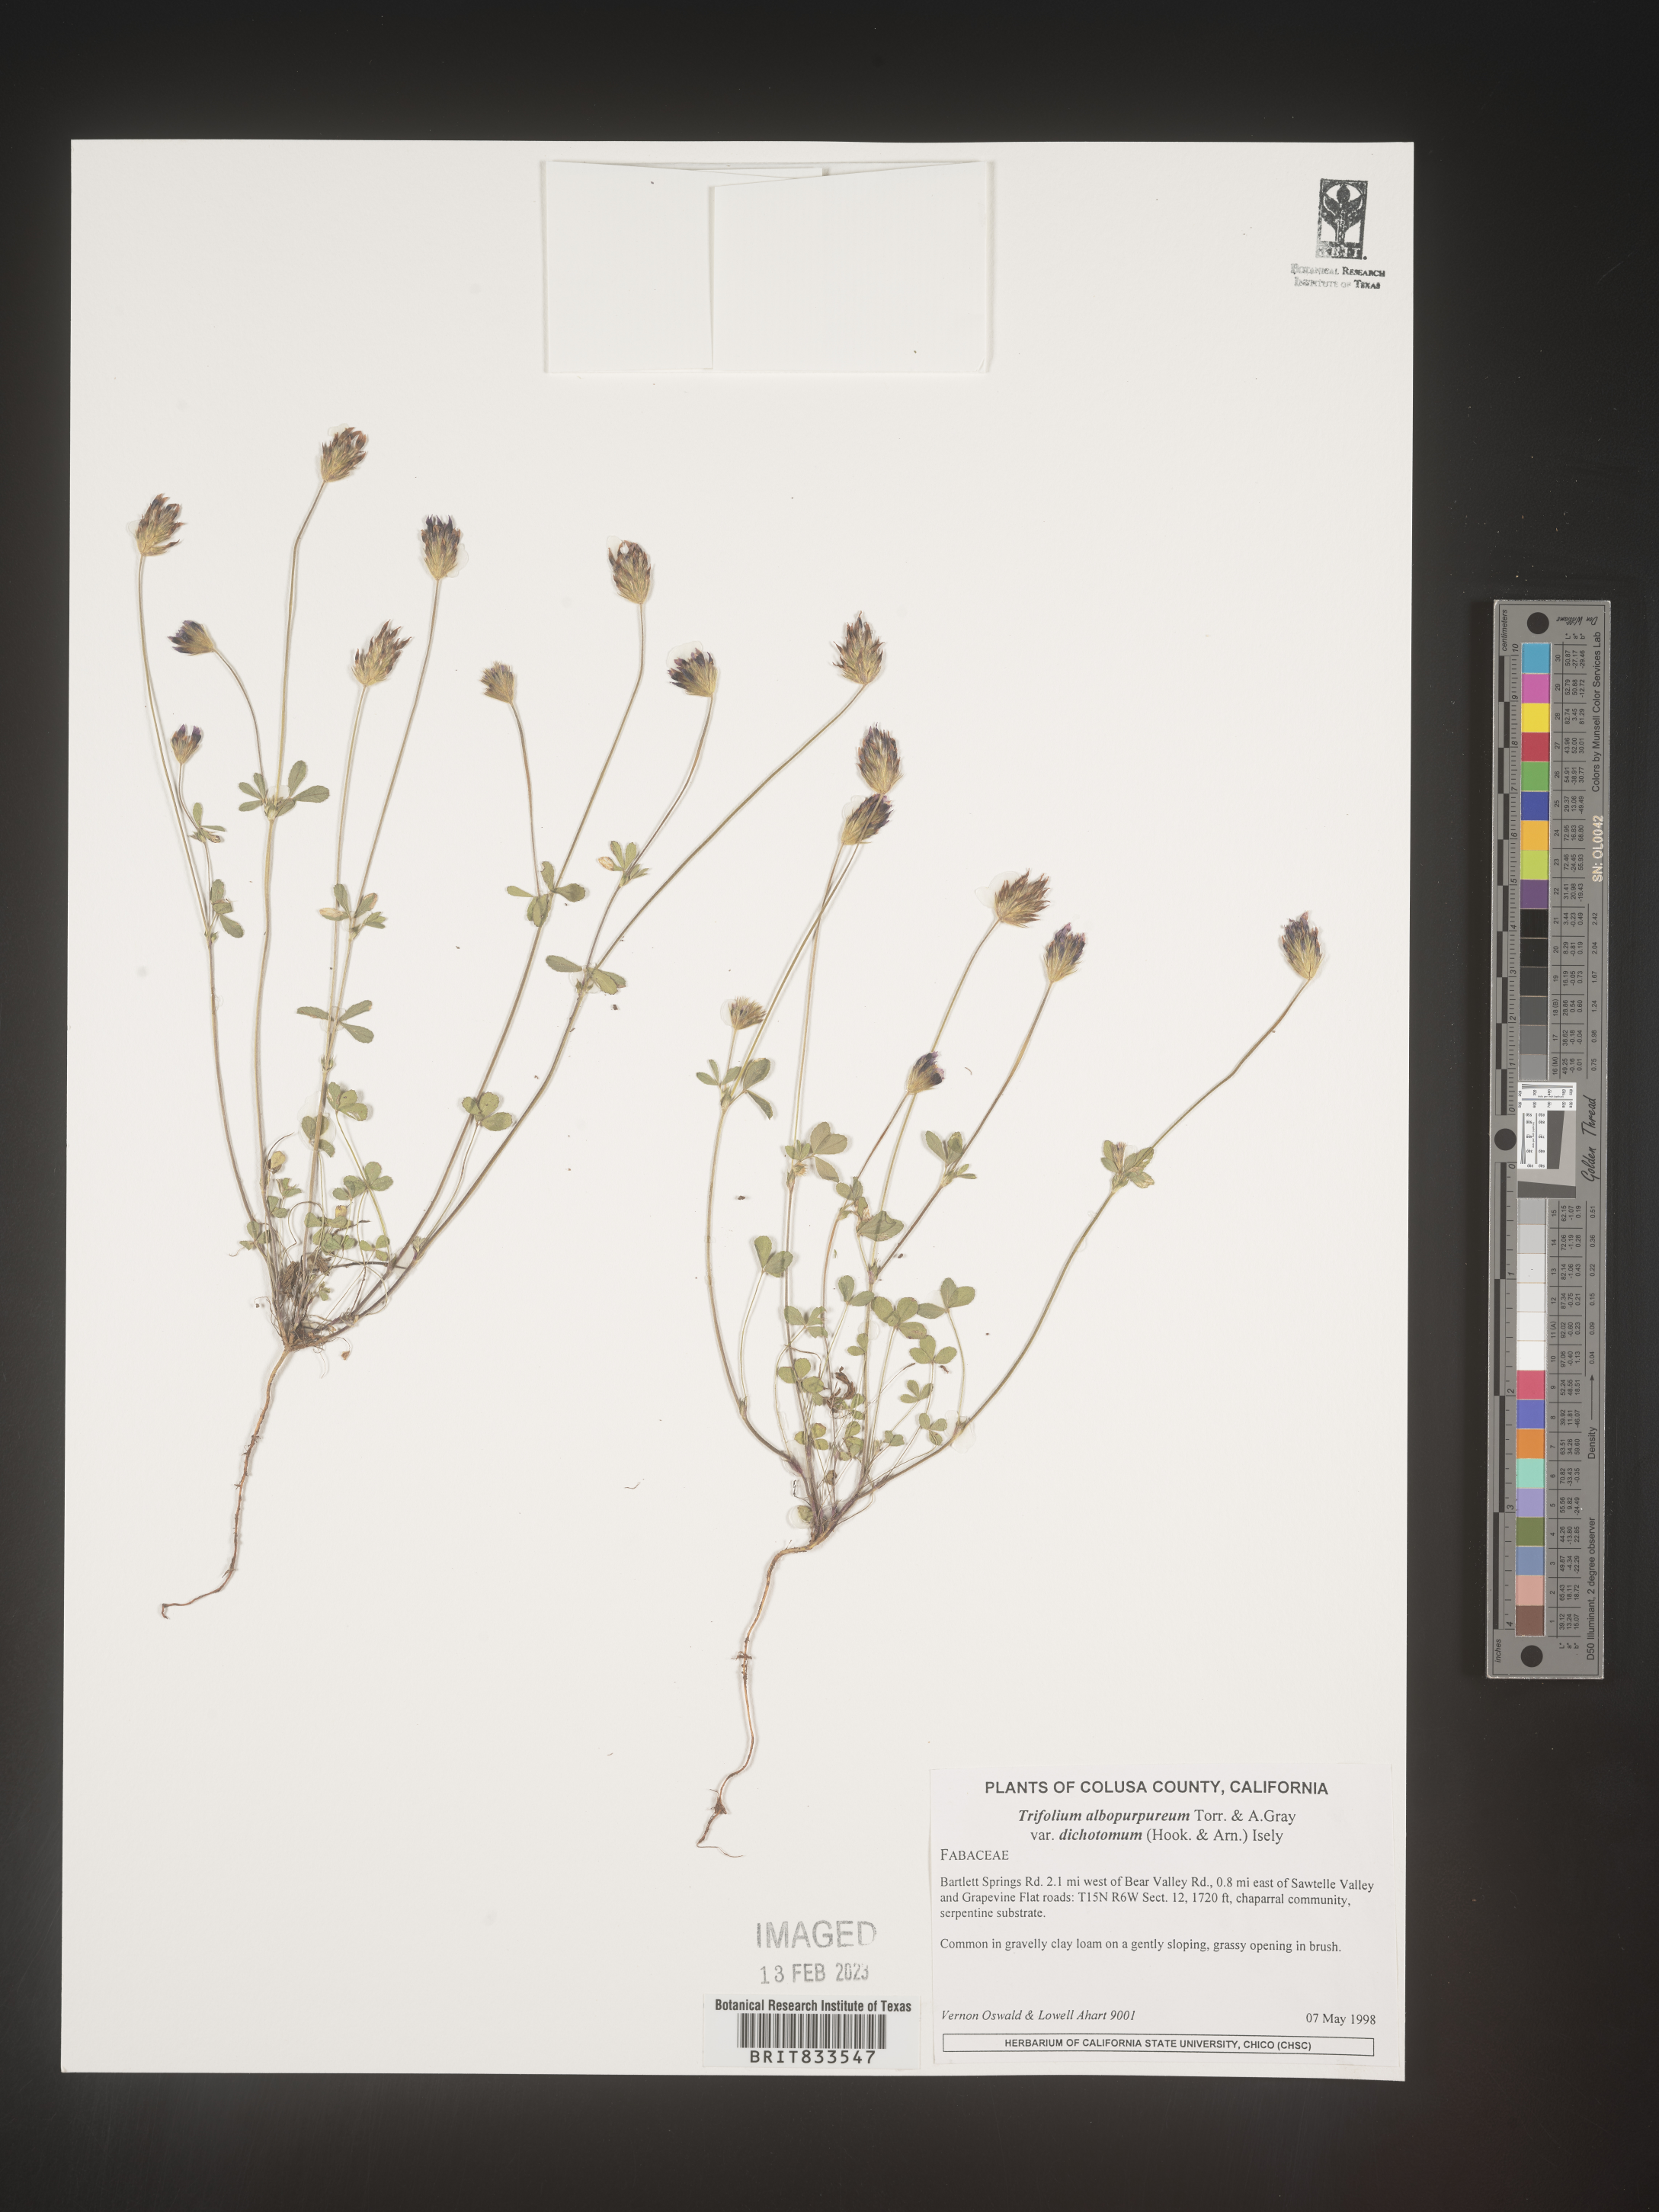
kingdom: Plantae
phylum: Tracheophyta
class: Magnoliopsida
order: Fabales
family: Fabaceae
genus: Trifolium
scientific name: Trifolium
